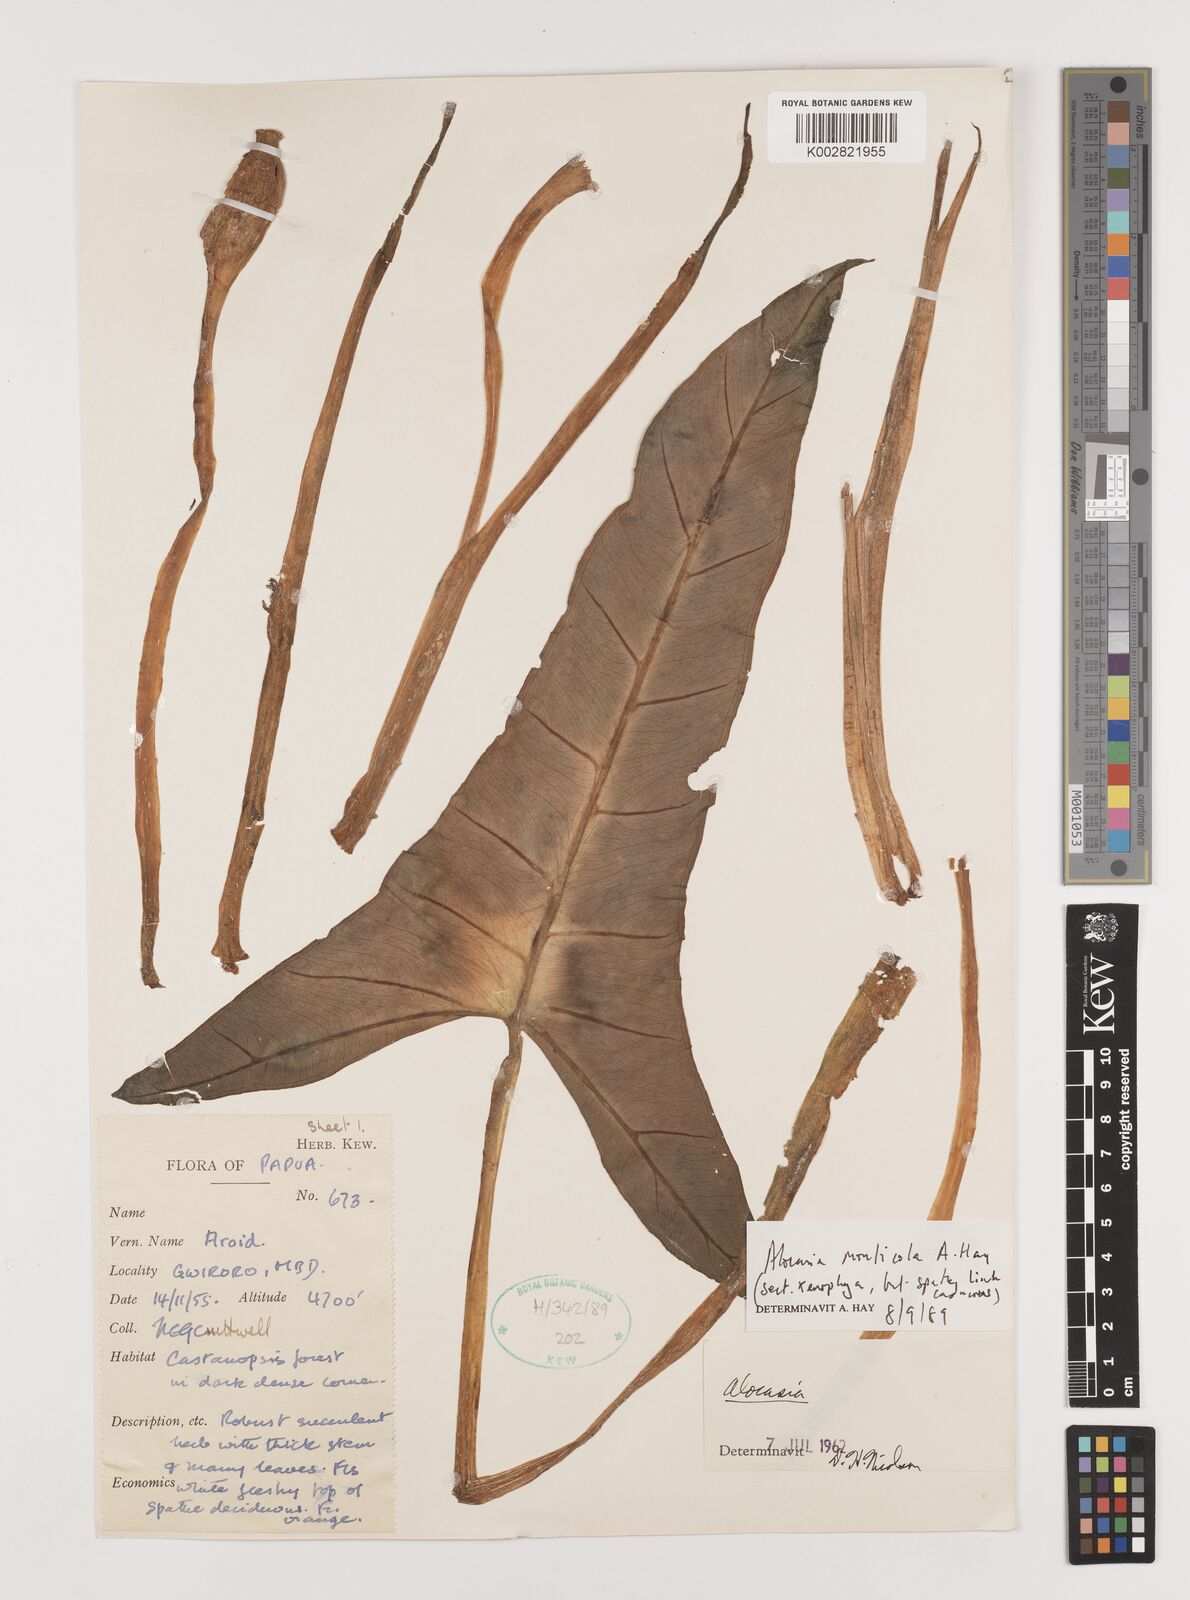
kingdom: Plantae
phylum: Tracheophyta
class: Liliopsida
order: Alismatales
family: Araceae
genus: Alocasia
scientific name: Alocasia monticola
